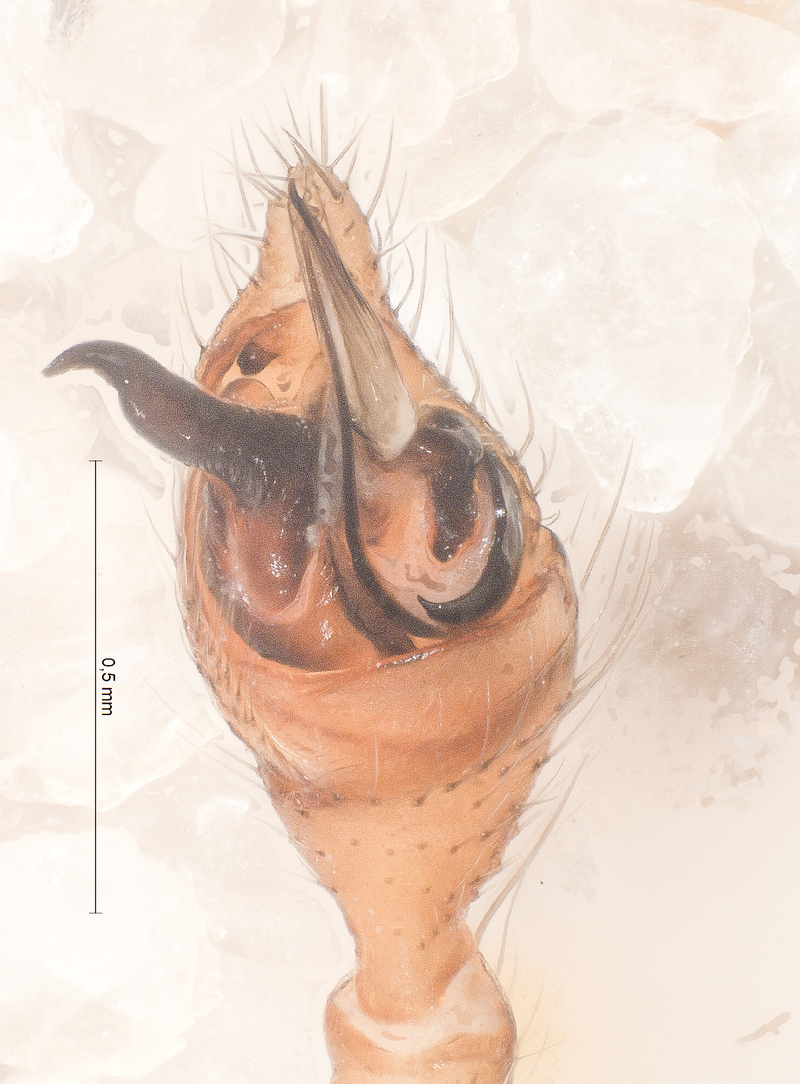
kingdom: Animalia
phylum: Arthropoda
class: Arachnida
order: Araneae
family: Theridiidae
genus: Steatoda
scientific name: Steatoda albomaculata
